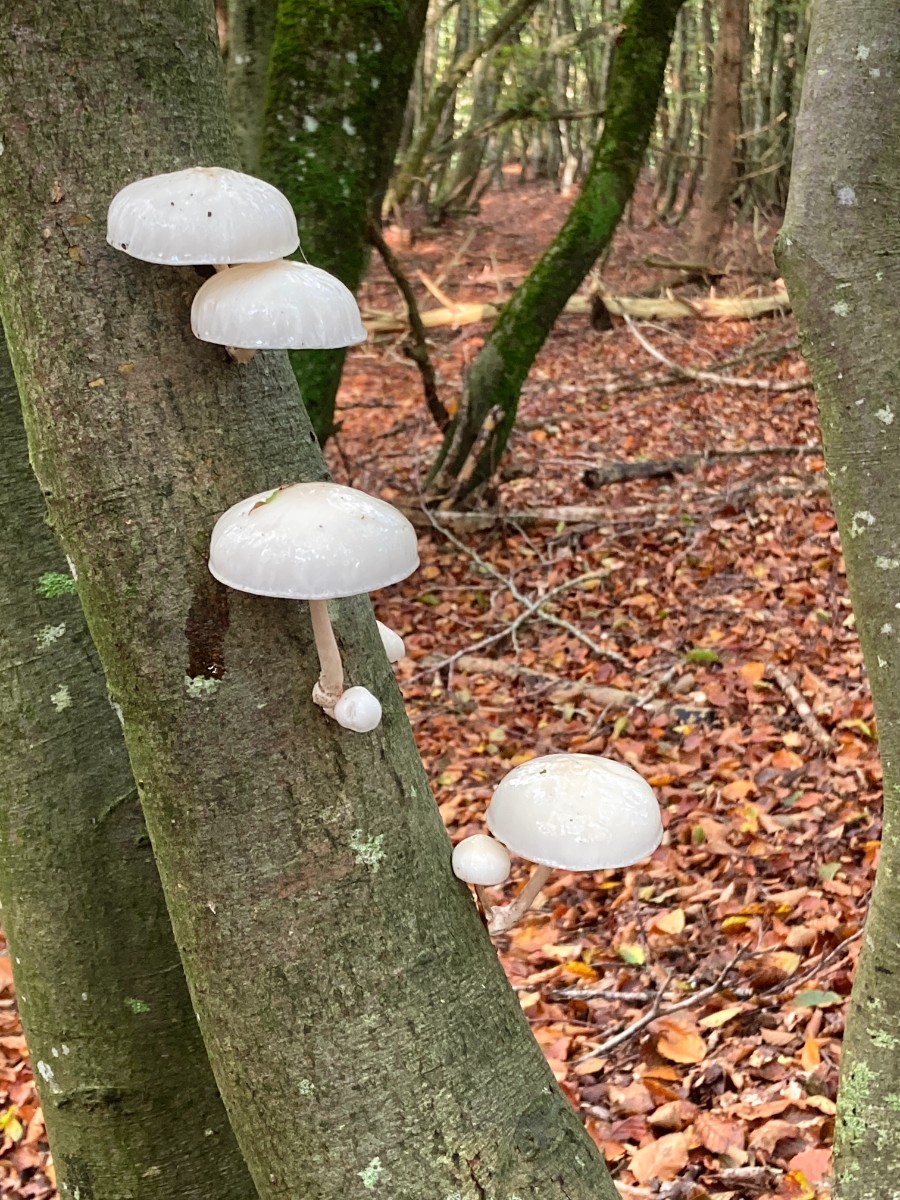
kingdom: Fungi
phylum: Basidiomycota
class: Agaricomycetes
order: Agaricales
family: Physalacriaceae
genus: Mucidula
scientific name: Mucidula mucida
